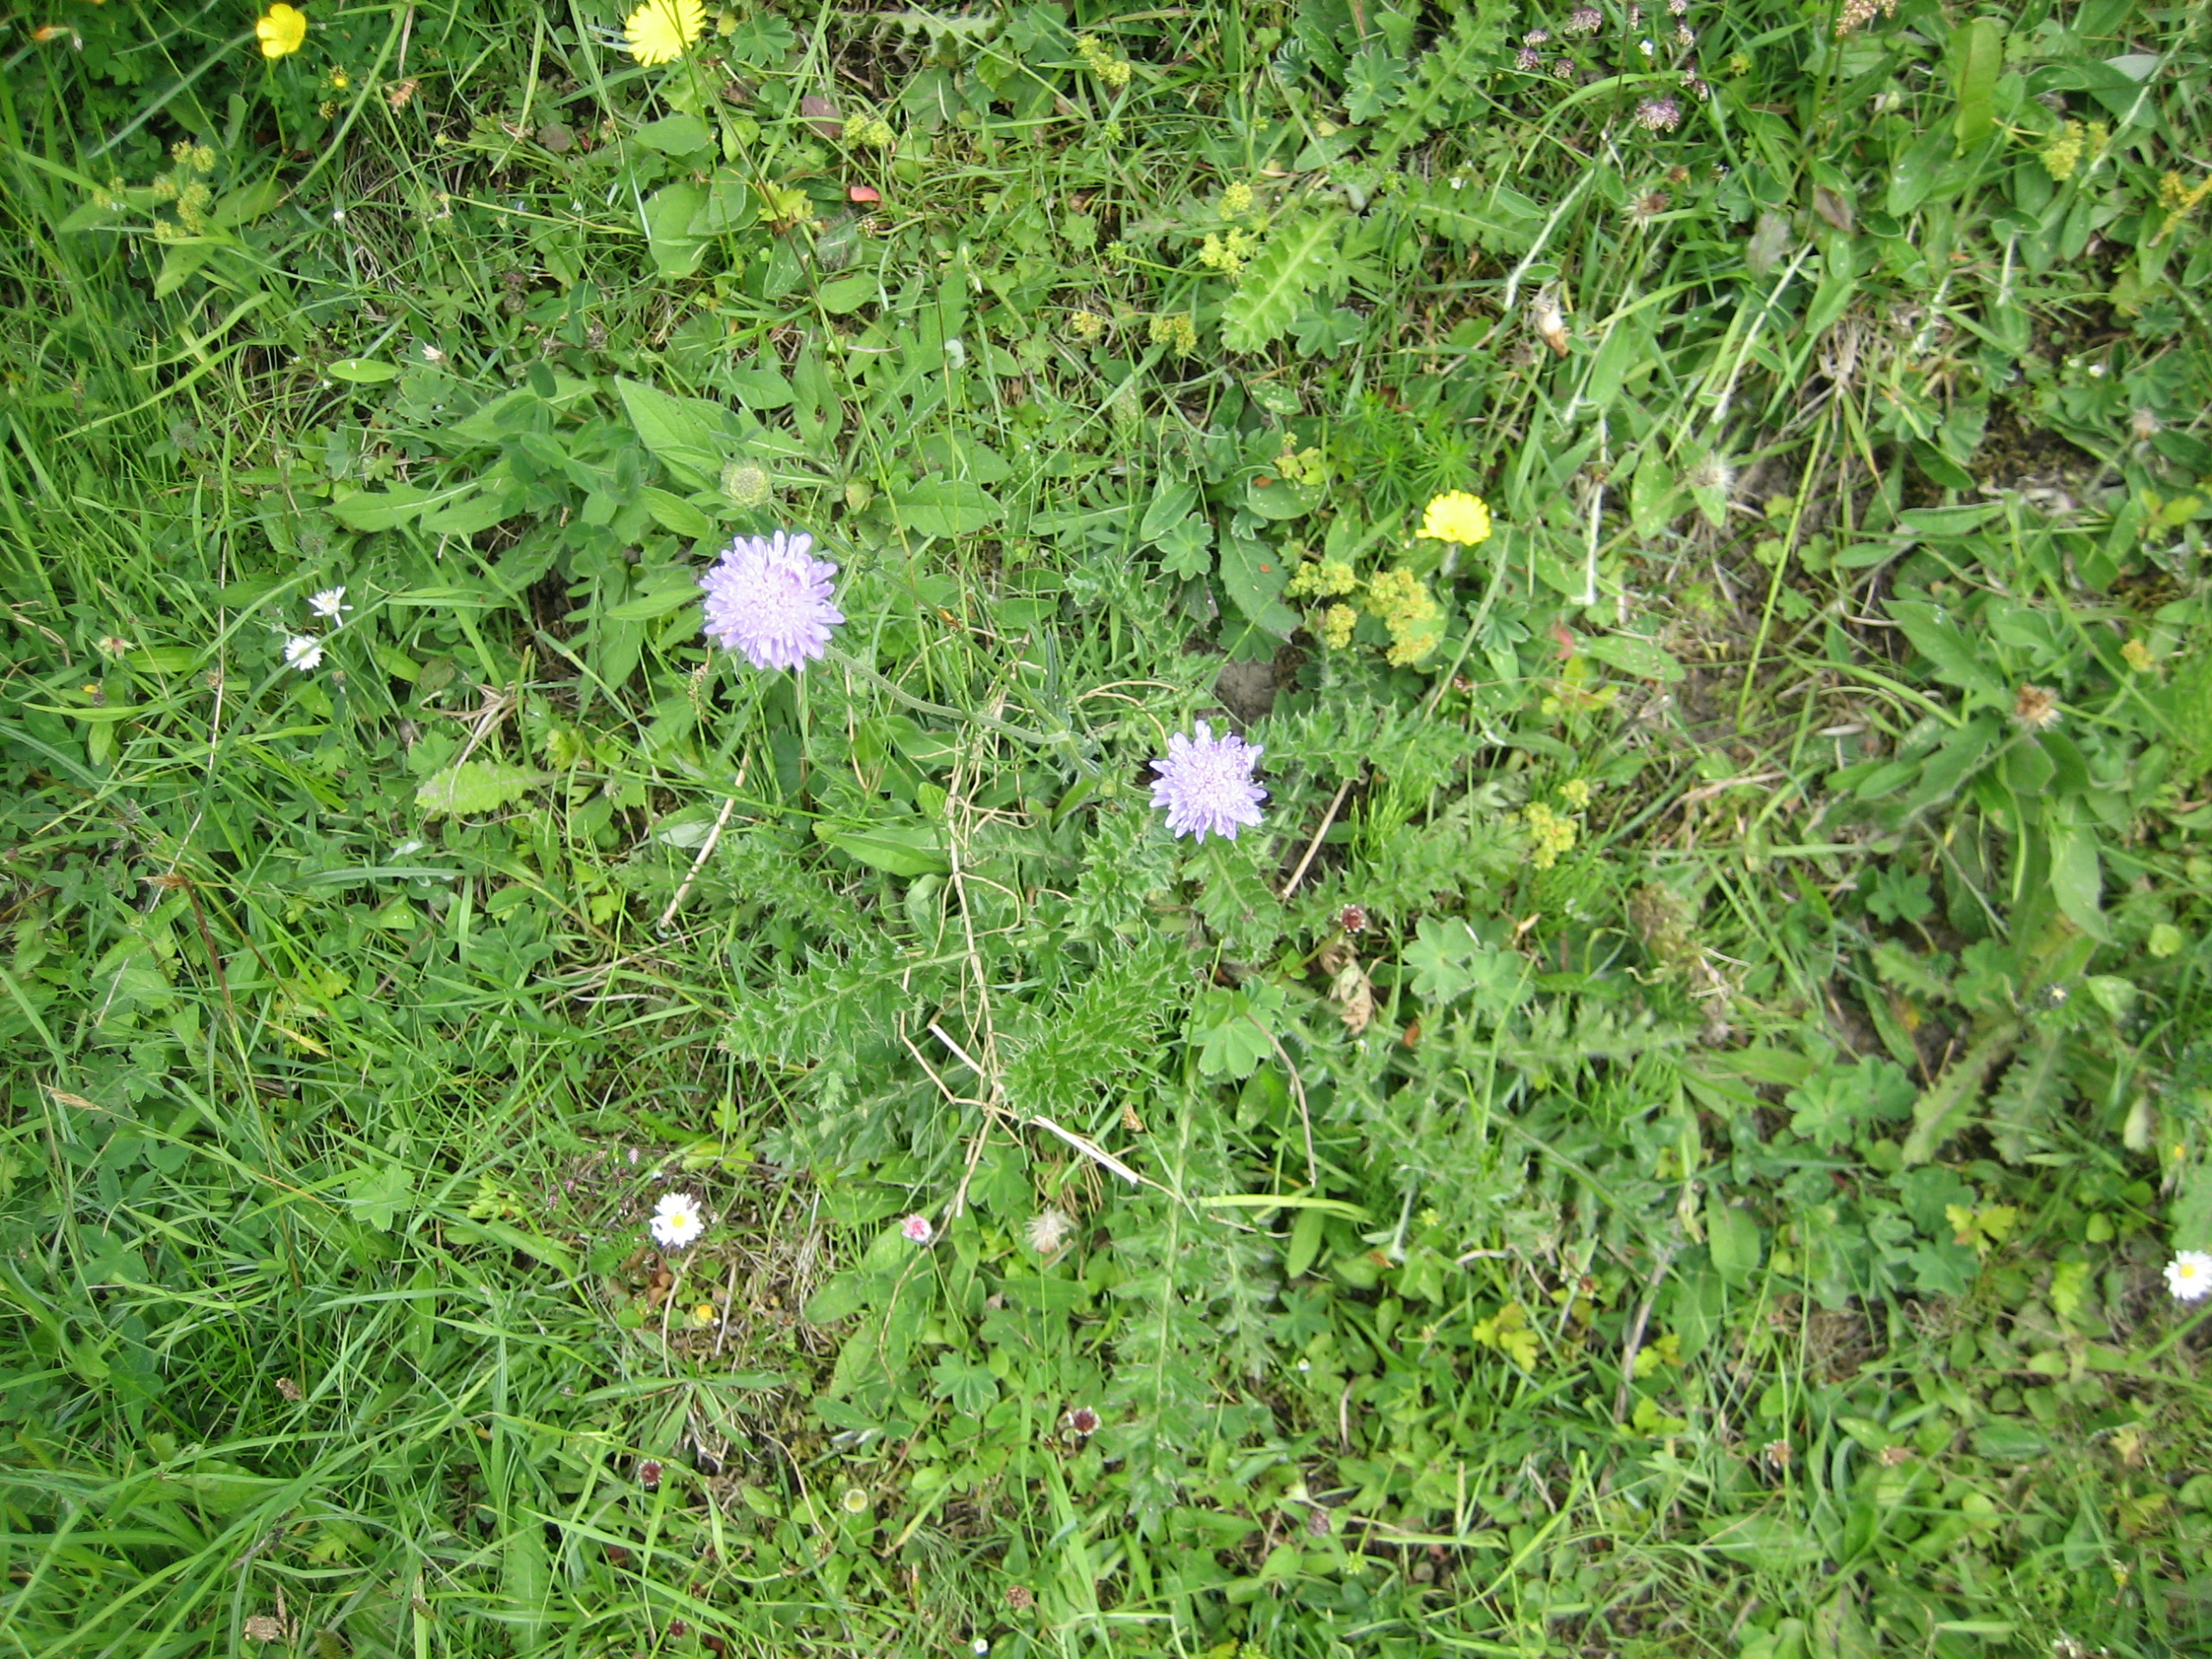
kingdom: Plantae
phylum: Tracheophyta
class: Magnoliopsida
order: Dipsacales
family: Caprifoliaceae
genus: Knautia
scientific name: Knautia arvensis
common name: Blåhat
